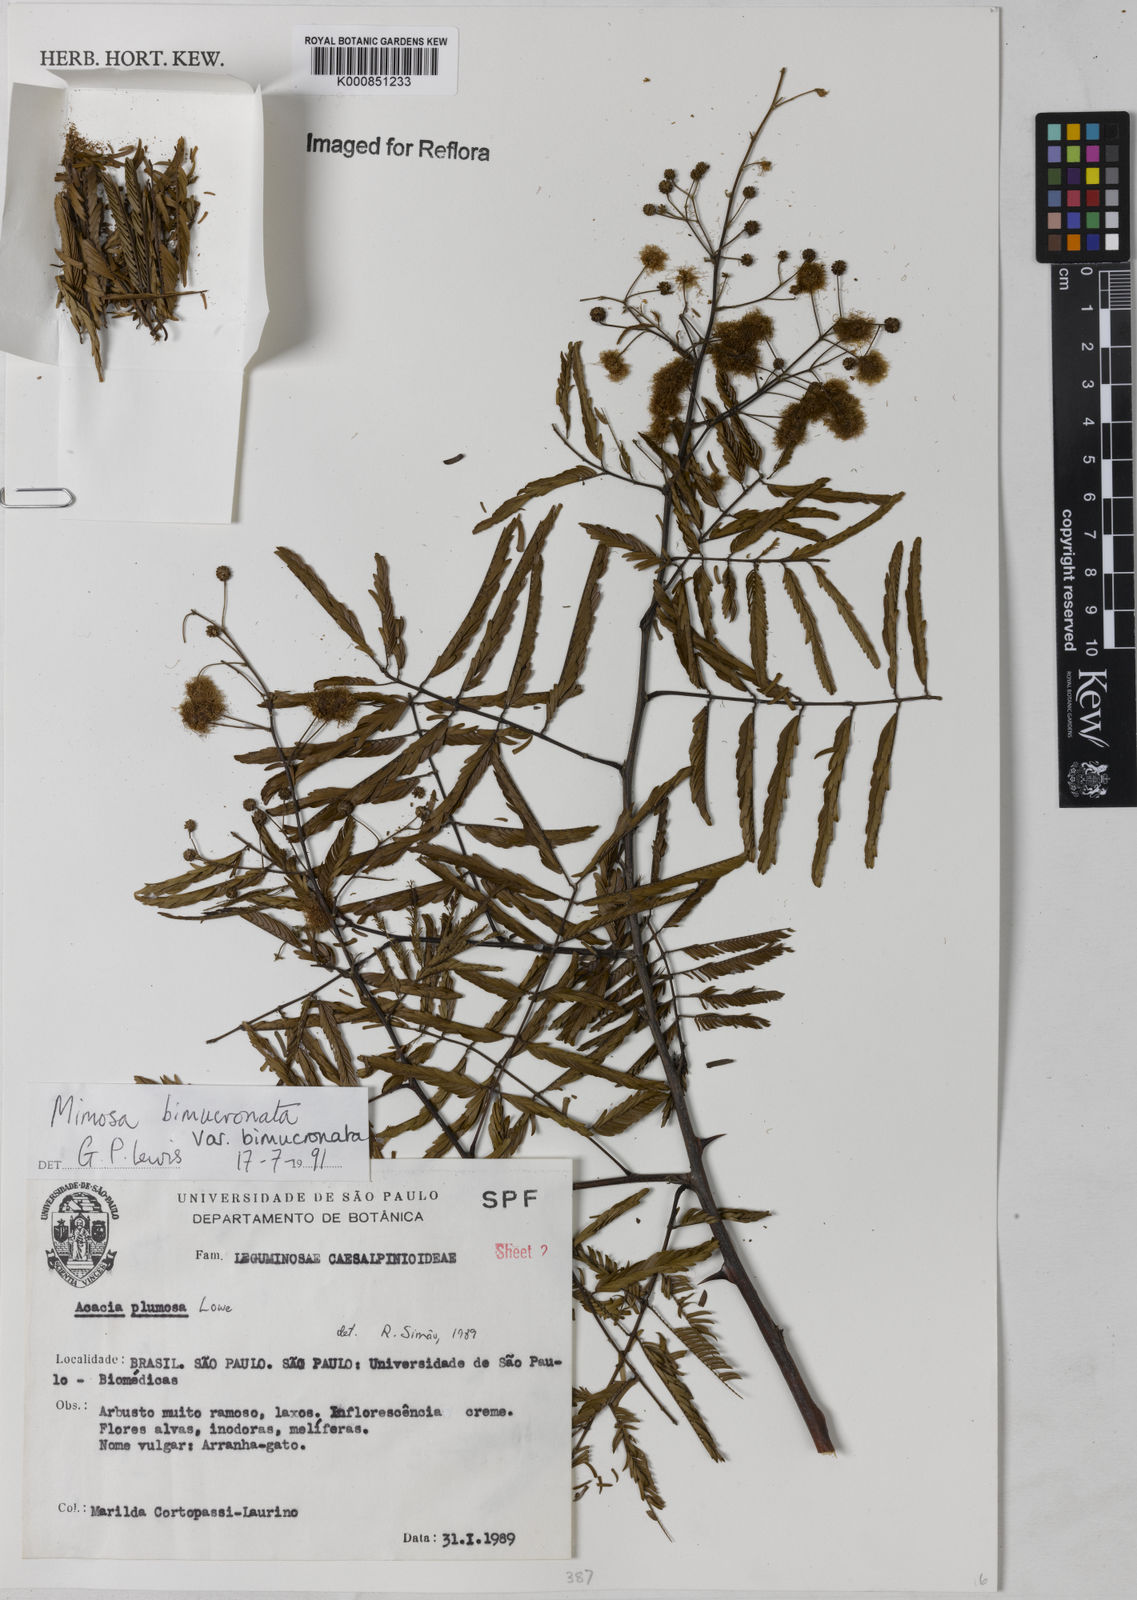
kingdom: Plantae
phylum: Tracheophyta
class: Magnoliopsida
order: Fabales
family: Fabaceae
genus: Mimosa
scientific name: Mimosa bimucronata
